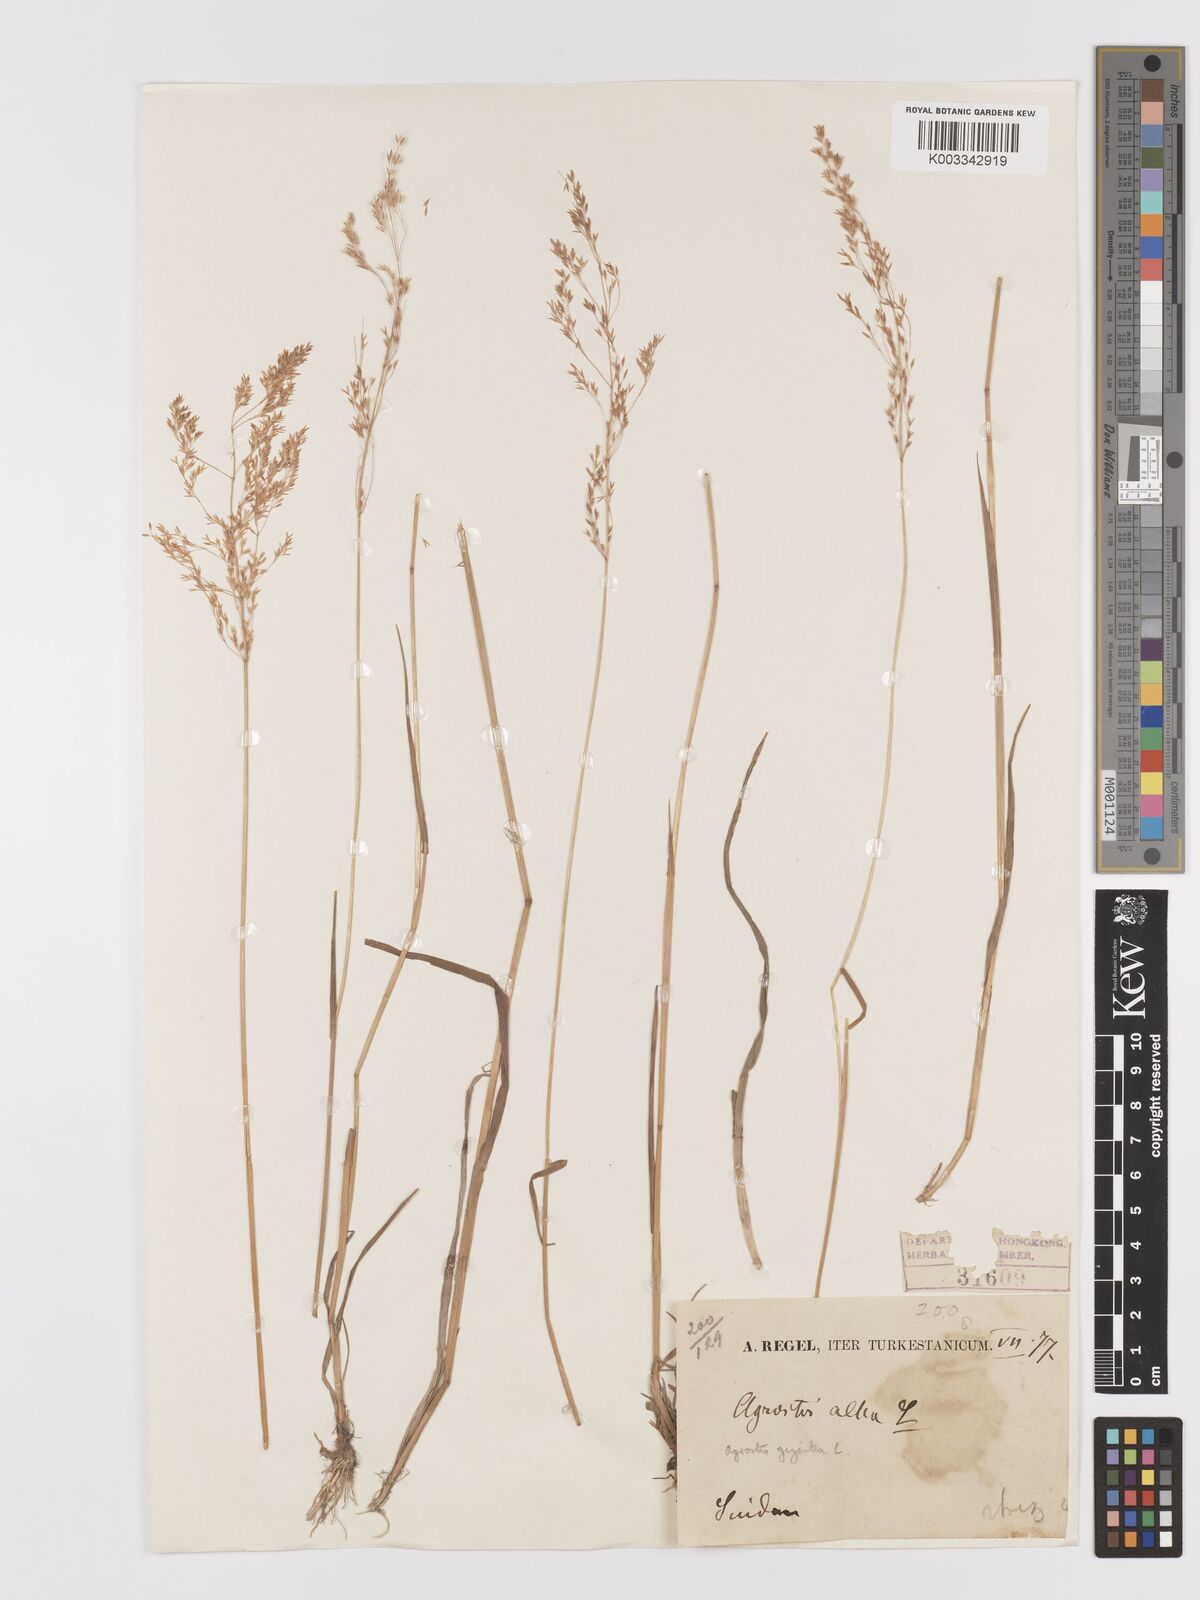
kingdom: Plantae
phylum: Tracheophyta
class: Liliopsida
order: Poales
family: Poaceae
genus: Agrostis
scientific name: Agrostis gigantea
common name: Black bent
